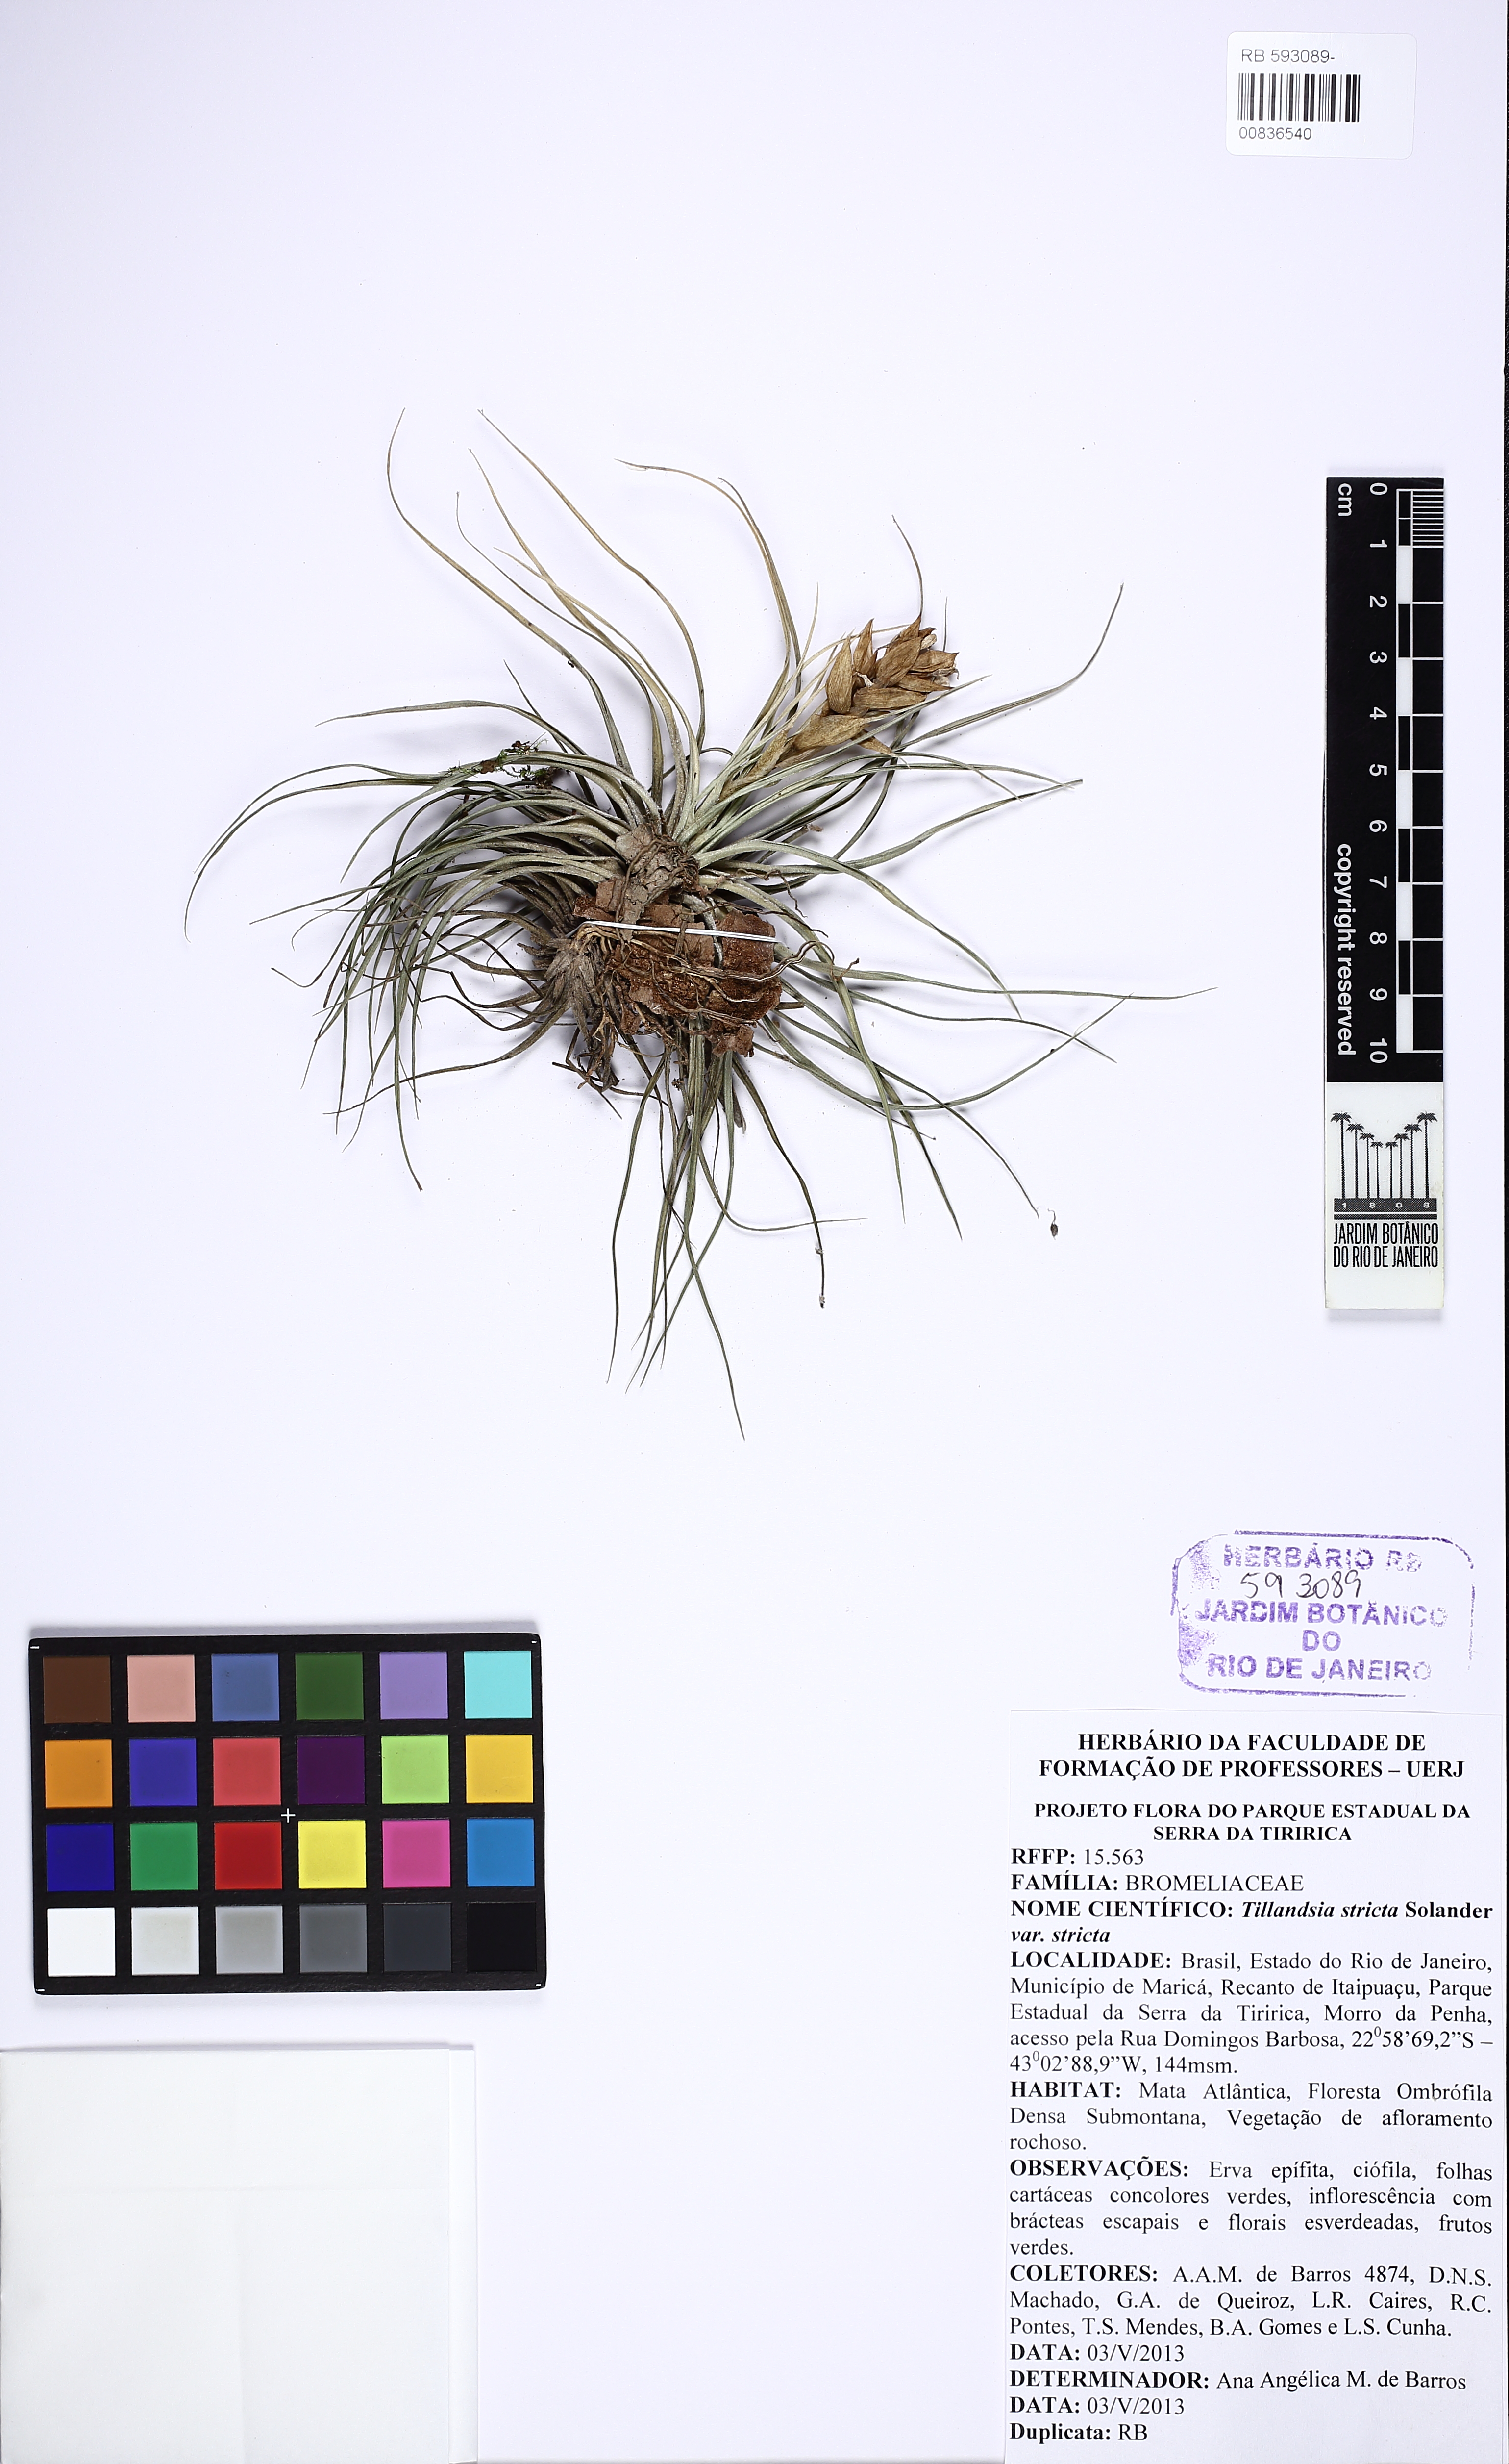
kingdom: Plantae
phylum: Tracheophyta
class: Liliopsida
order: Poales
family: Bromeliaceae
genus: Tillandsia
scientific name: Tillandsia stricta
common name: Airplant
